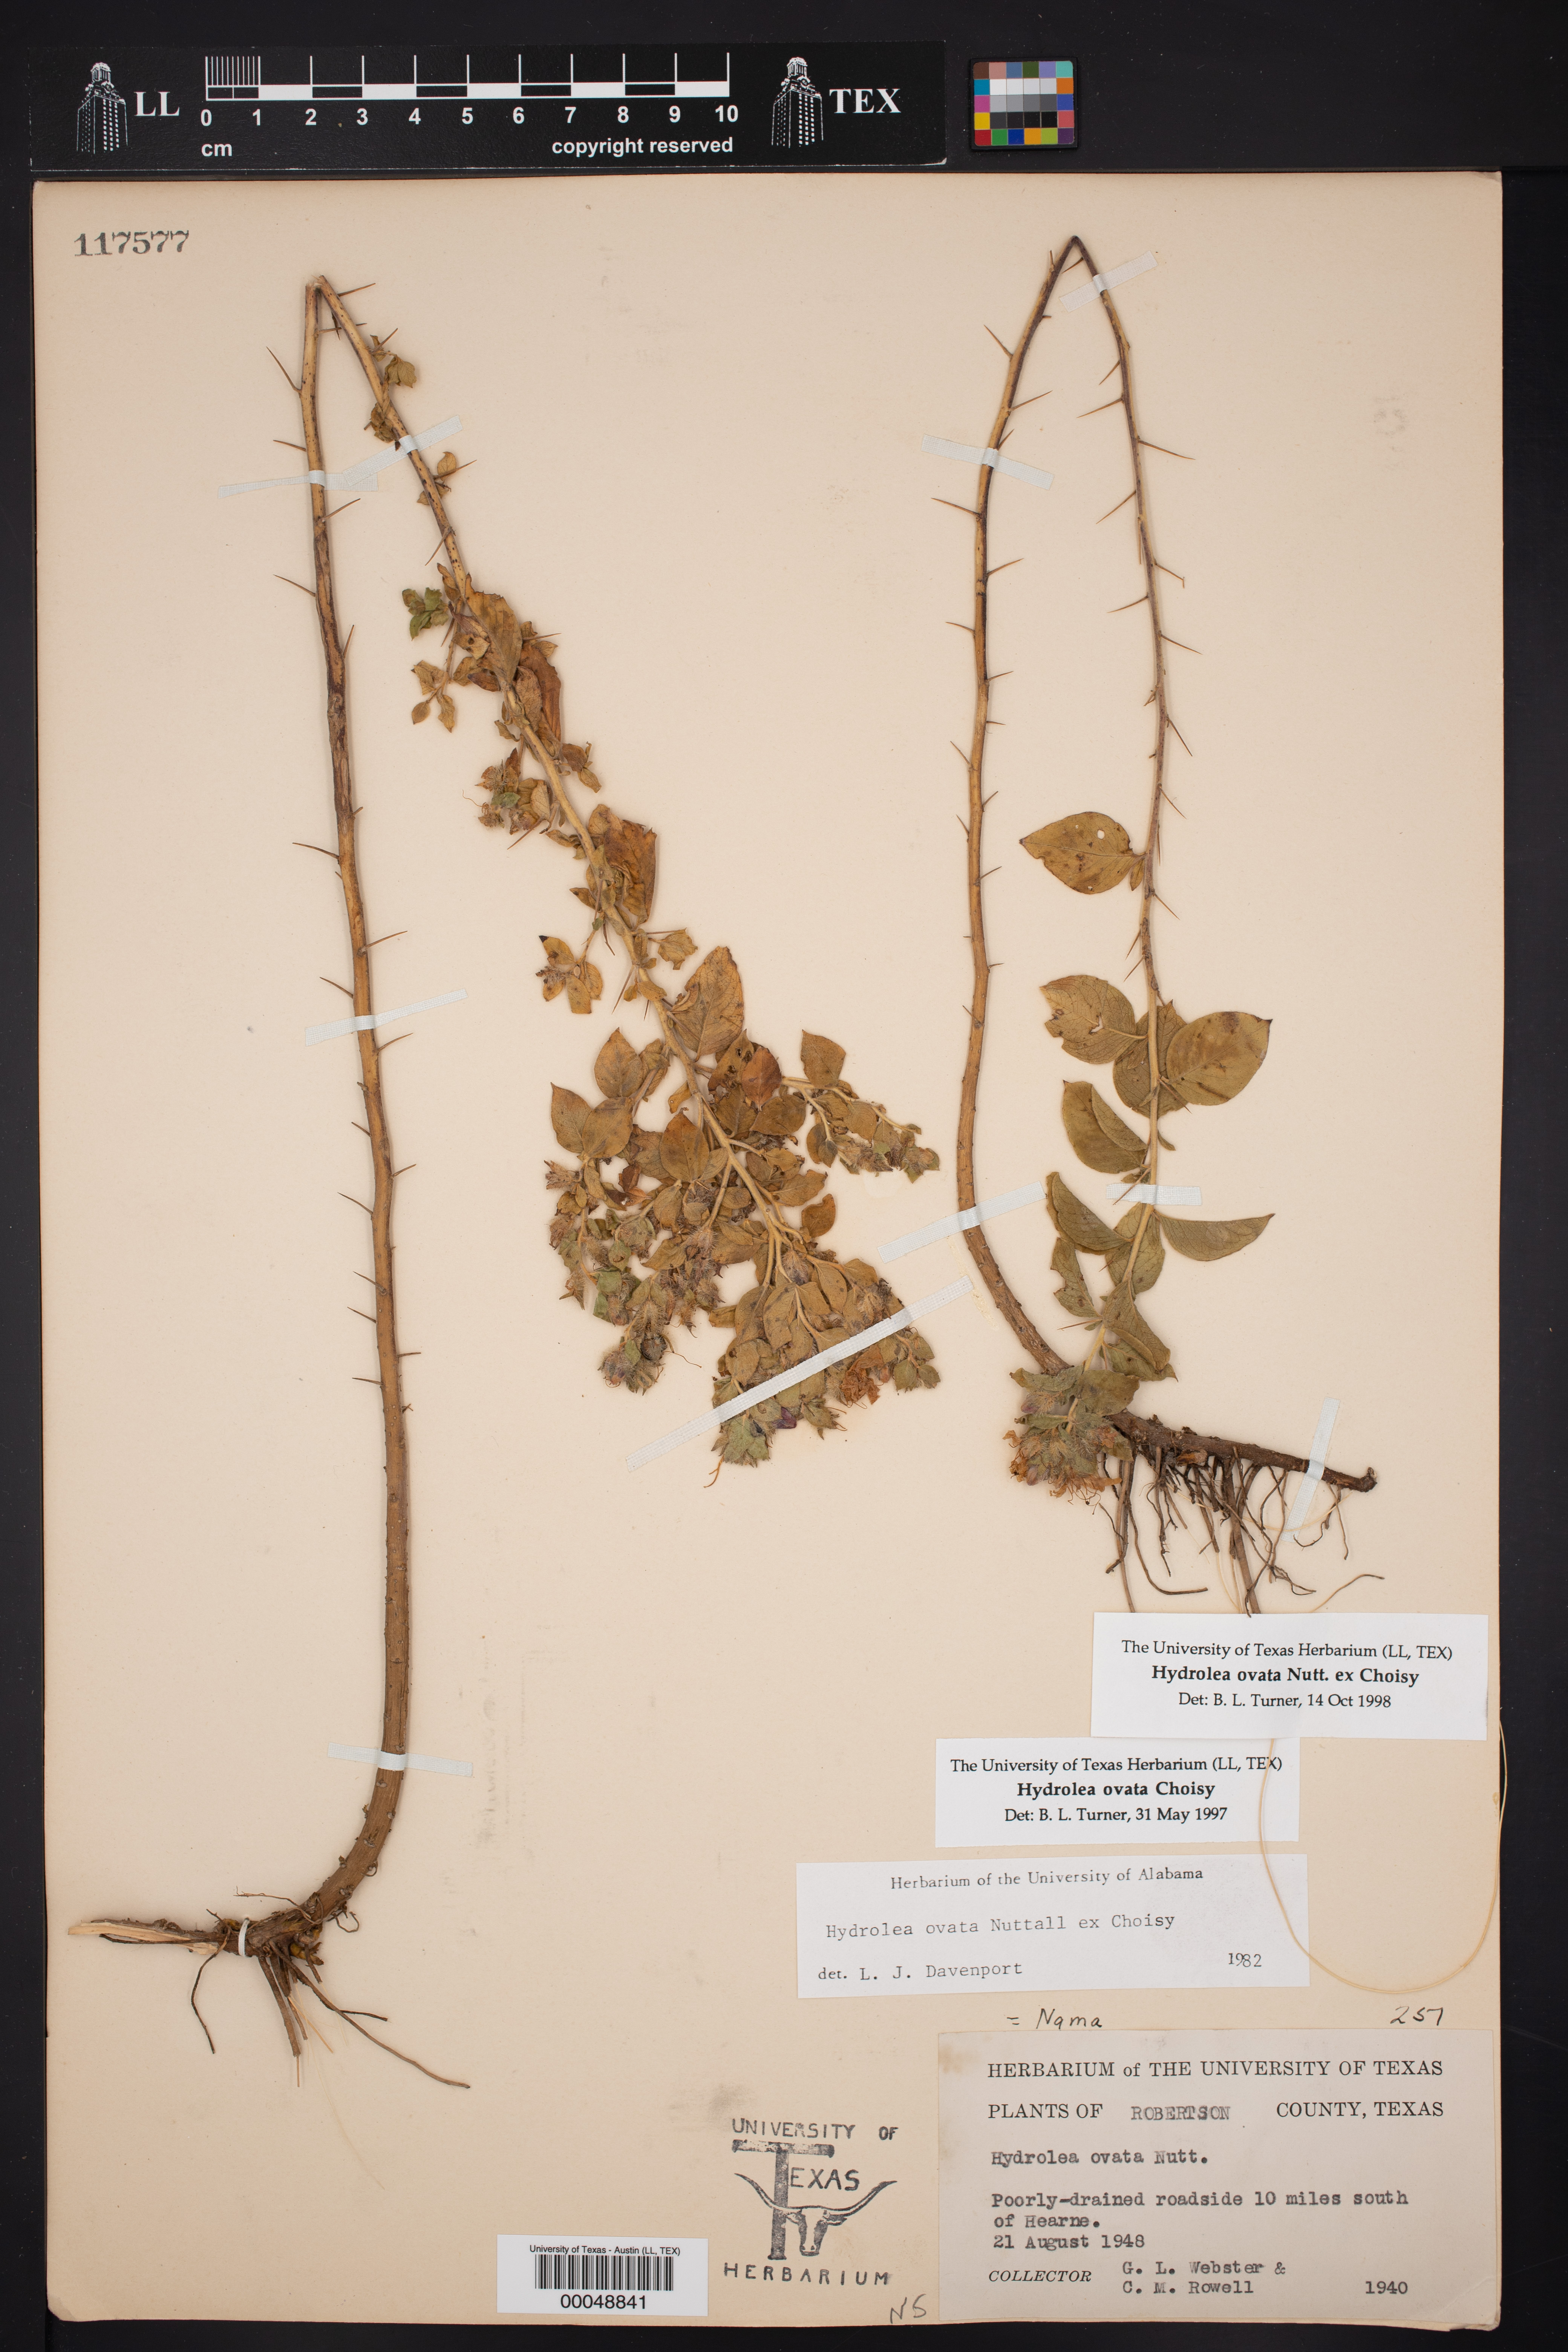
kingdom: Plantae
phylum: Tracheophyta
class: Magnoliopsida
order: Solanales
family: Hydroleaceae
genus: Hydrolea
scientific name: Hydrolea ovata
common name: Ovate false fiddleleaf
